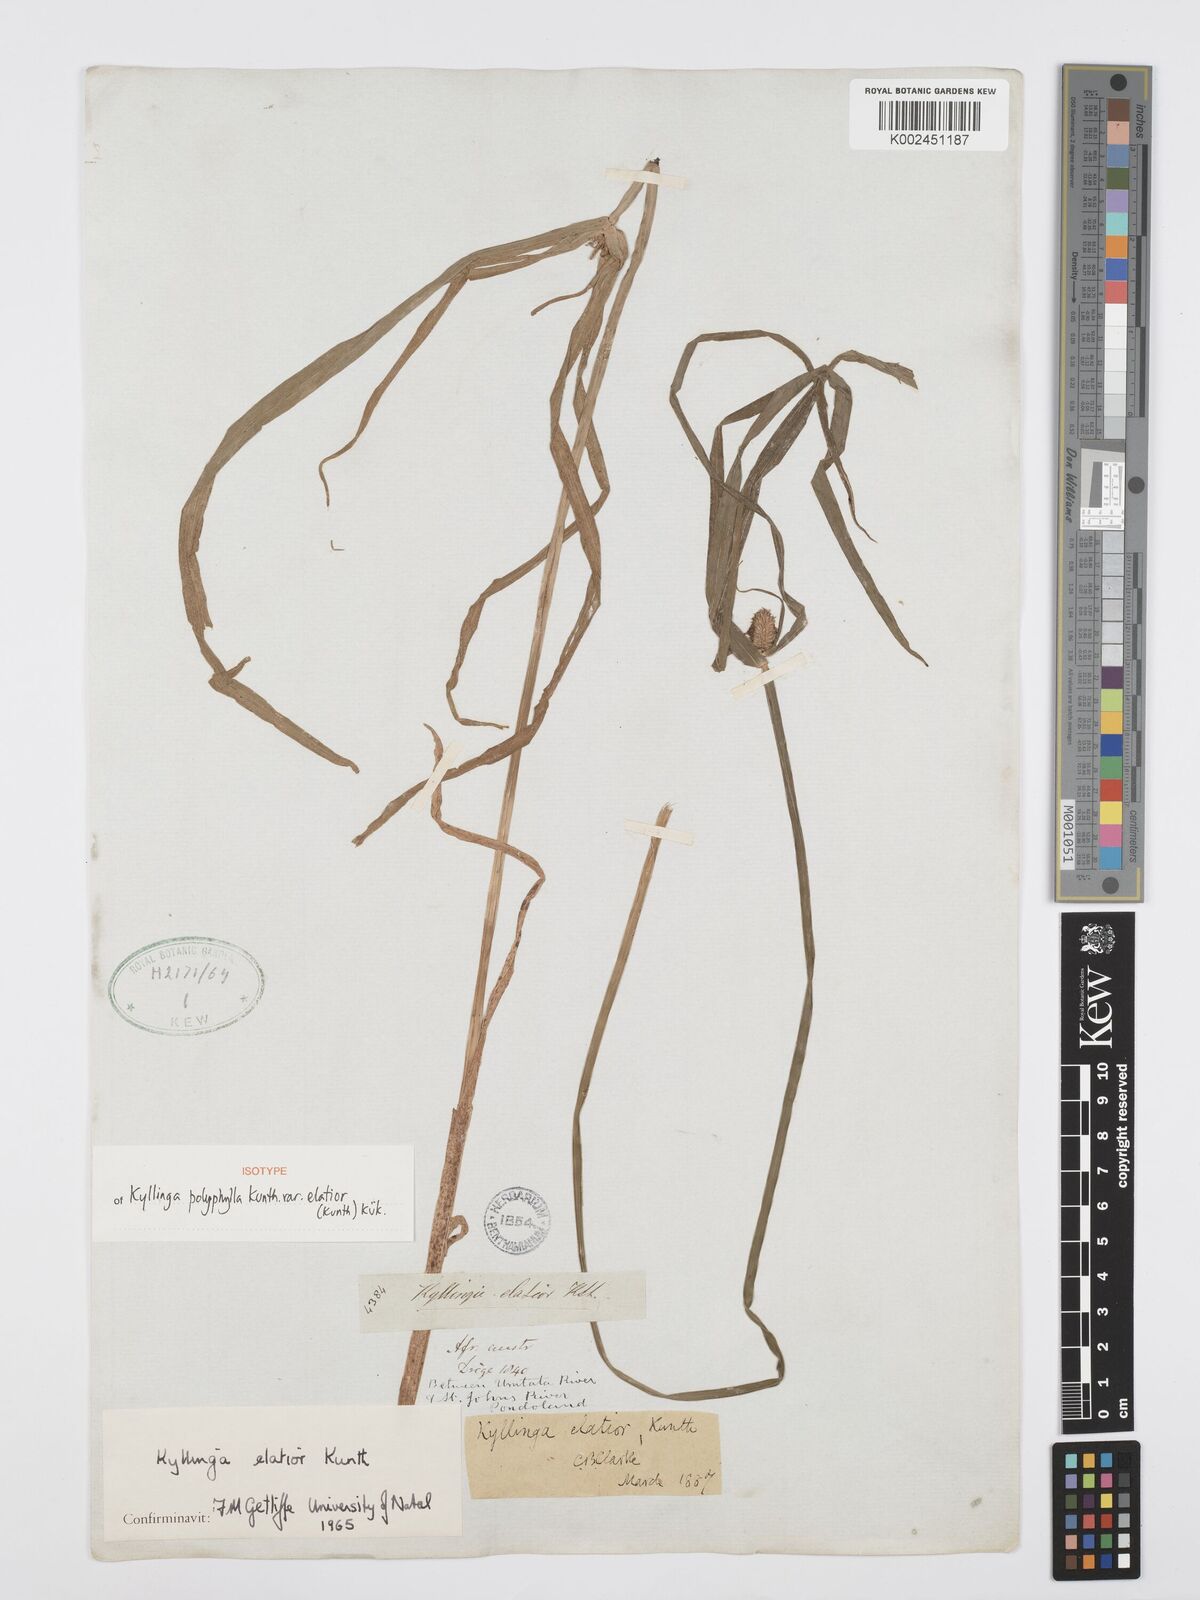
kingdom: Plantae
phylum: Tracheophyta
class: Liliopsida
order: Poales
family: Cyperaceae
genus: Cyperus
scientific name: Cyperus ruwenzoriensis
